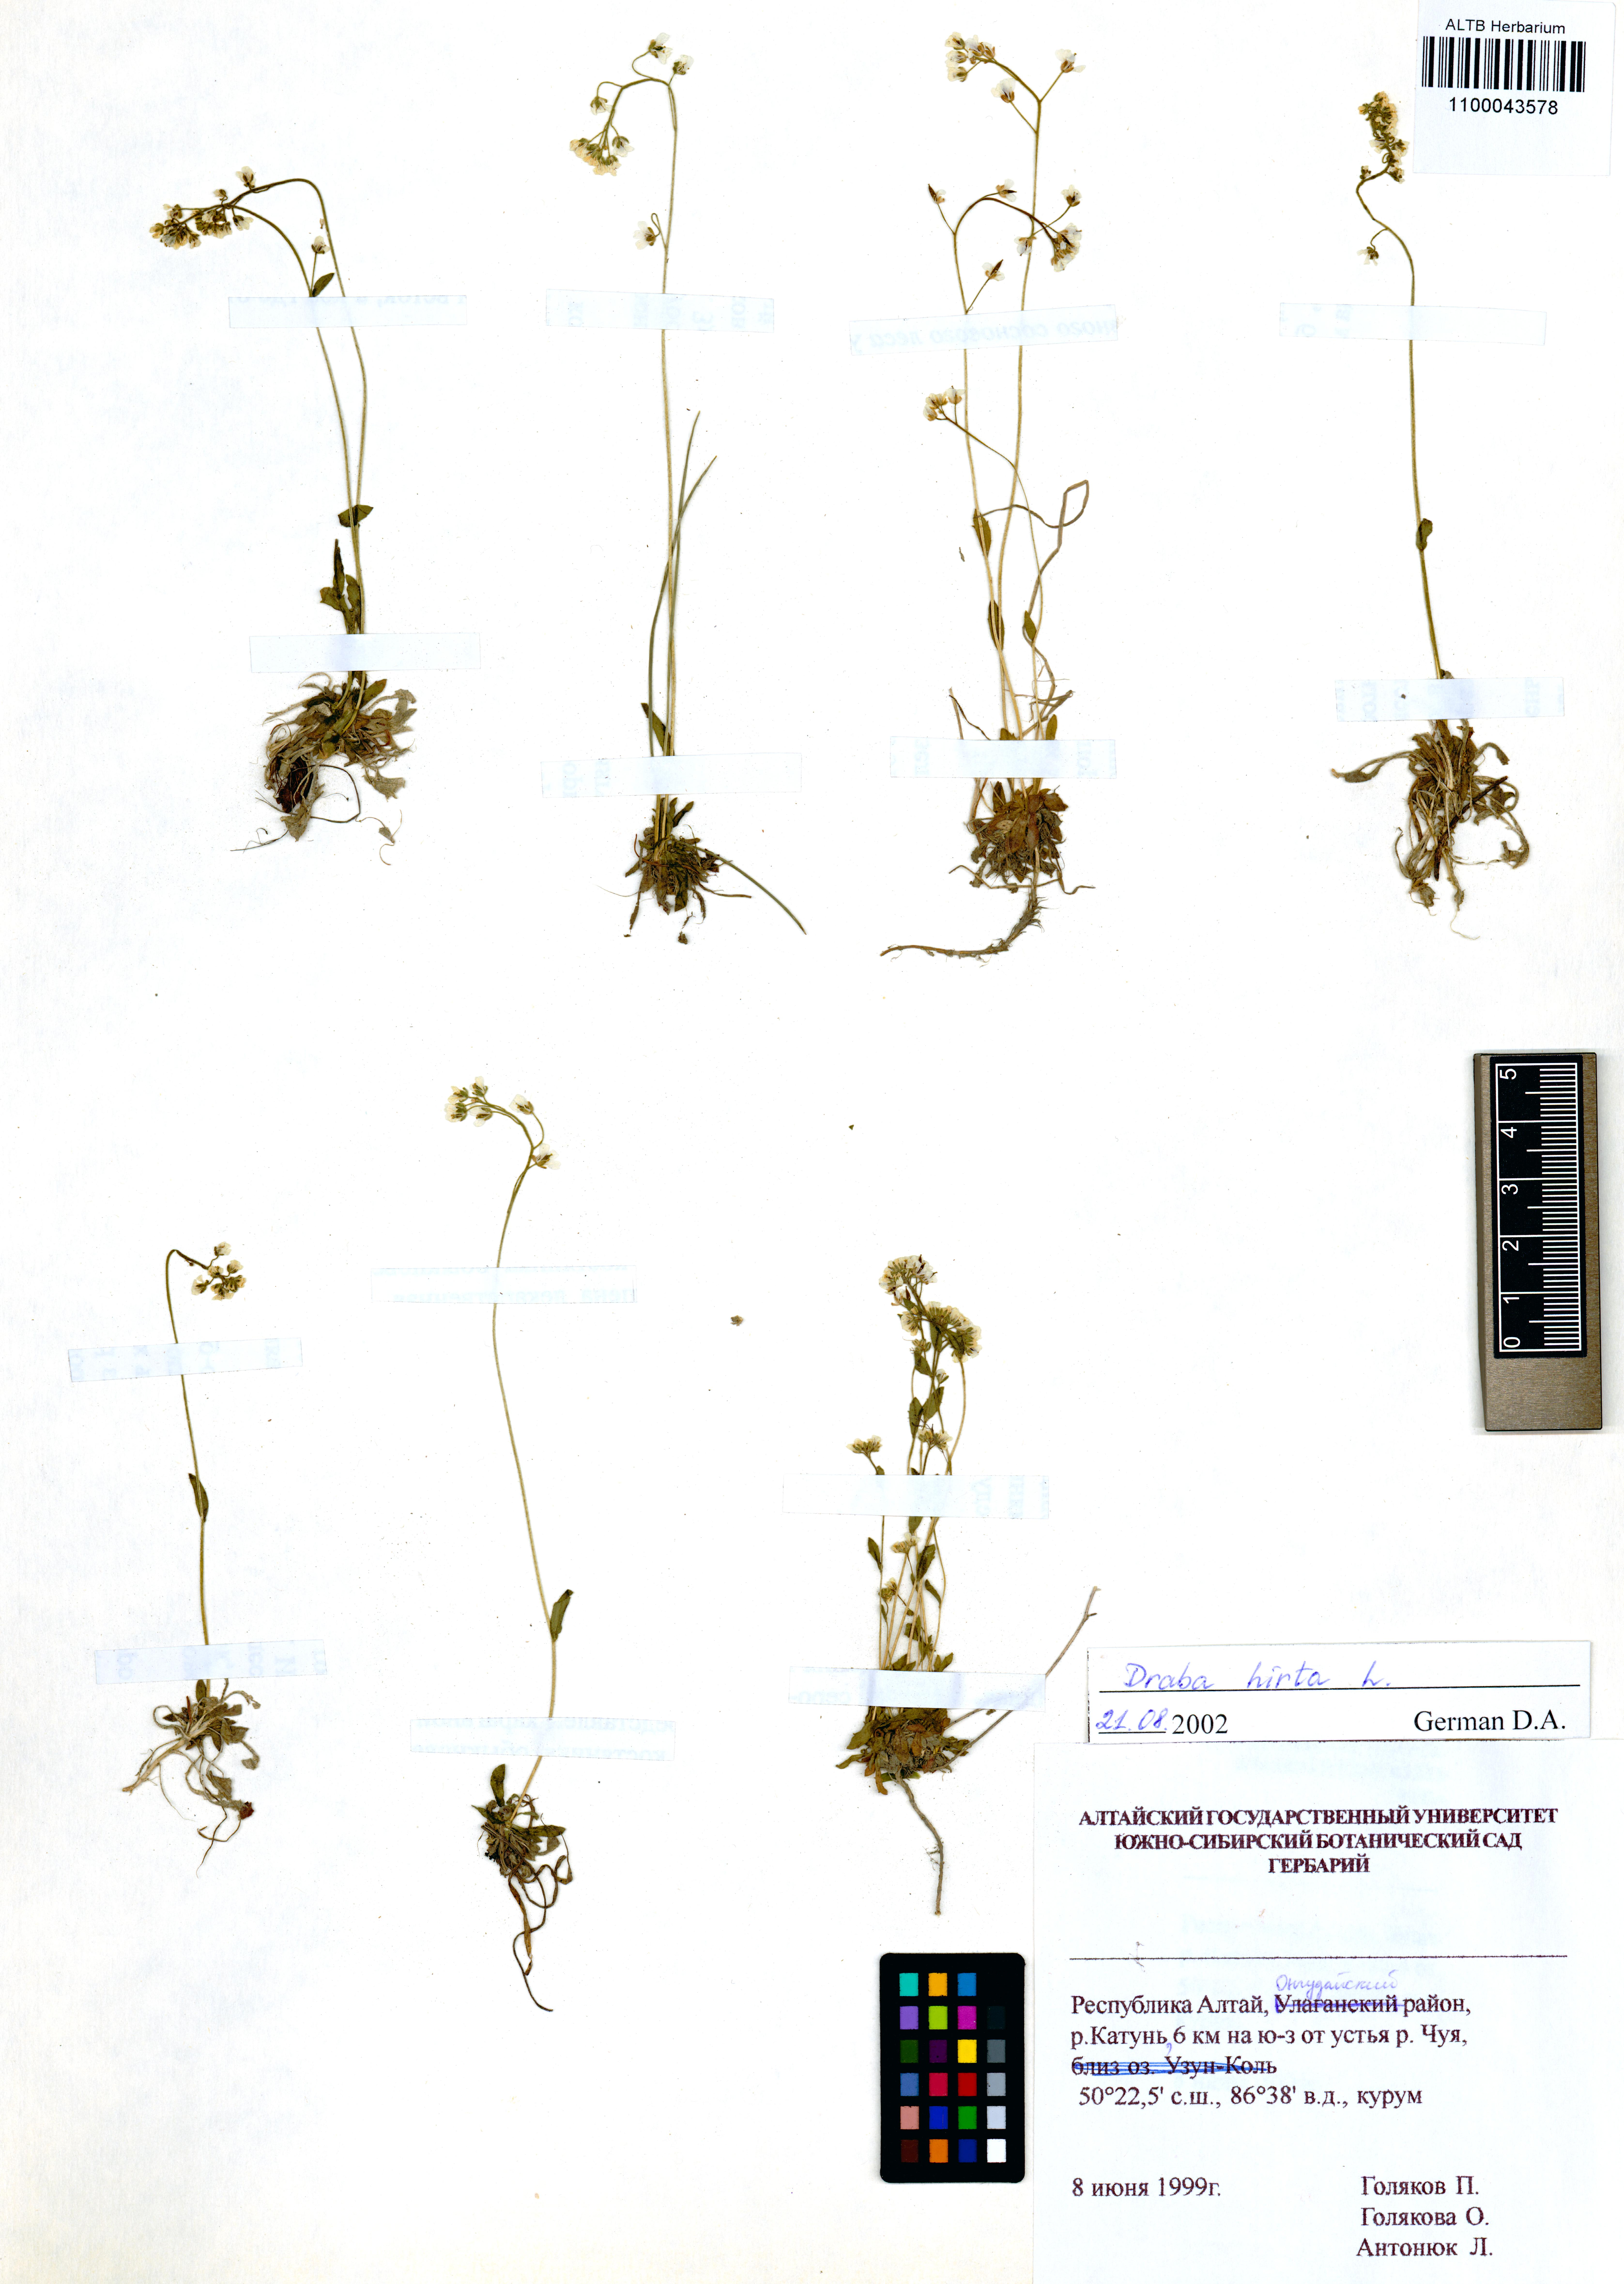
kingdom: Plantae
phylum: Tracheophyta
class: Magnoliopsida
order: Brassicales
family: Brassicaceae
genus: Draba
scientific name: Draba glabella
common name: Glaucous draba
